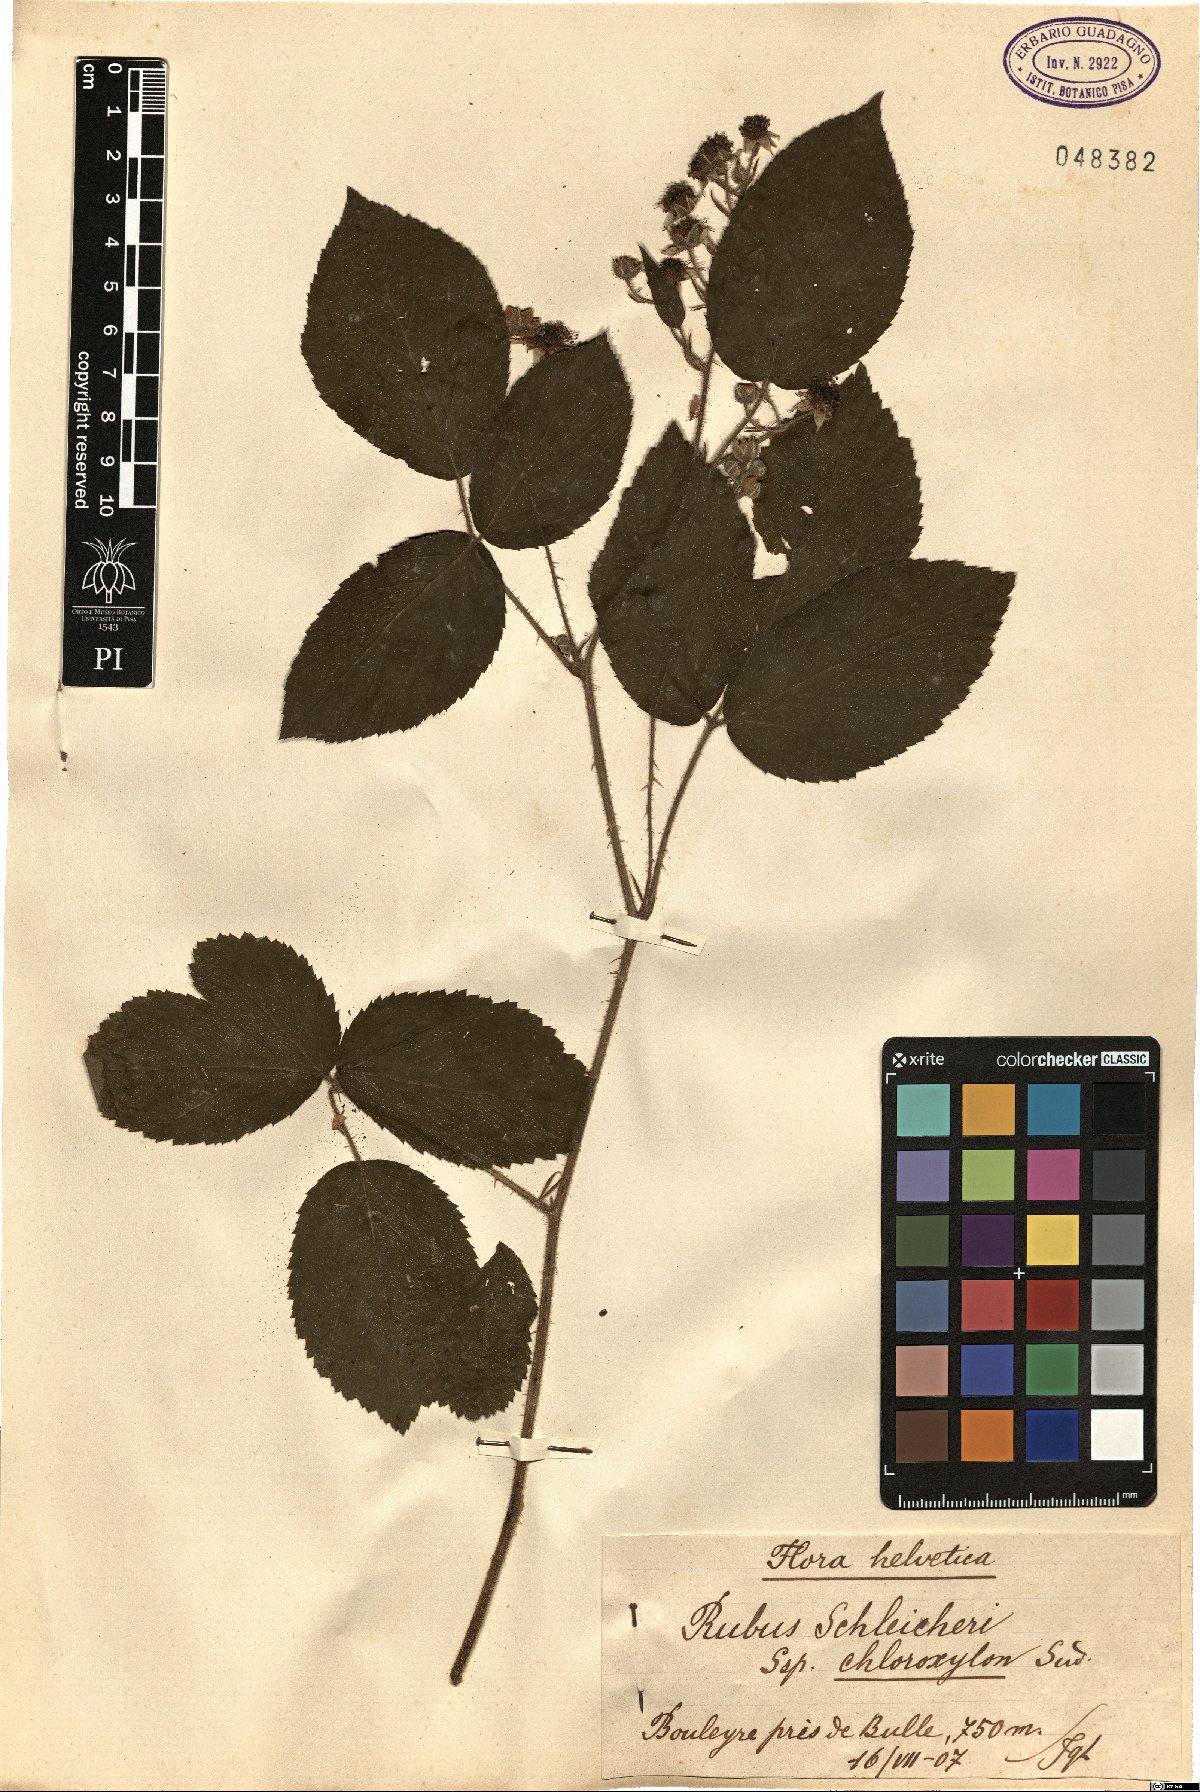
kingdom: Plantae
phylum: Tracheophyta
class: Magnoliopsida
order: Rosales
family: Rosaceae
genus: Rubus
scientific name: Rubus schleicheri
